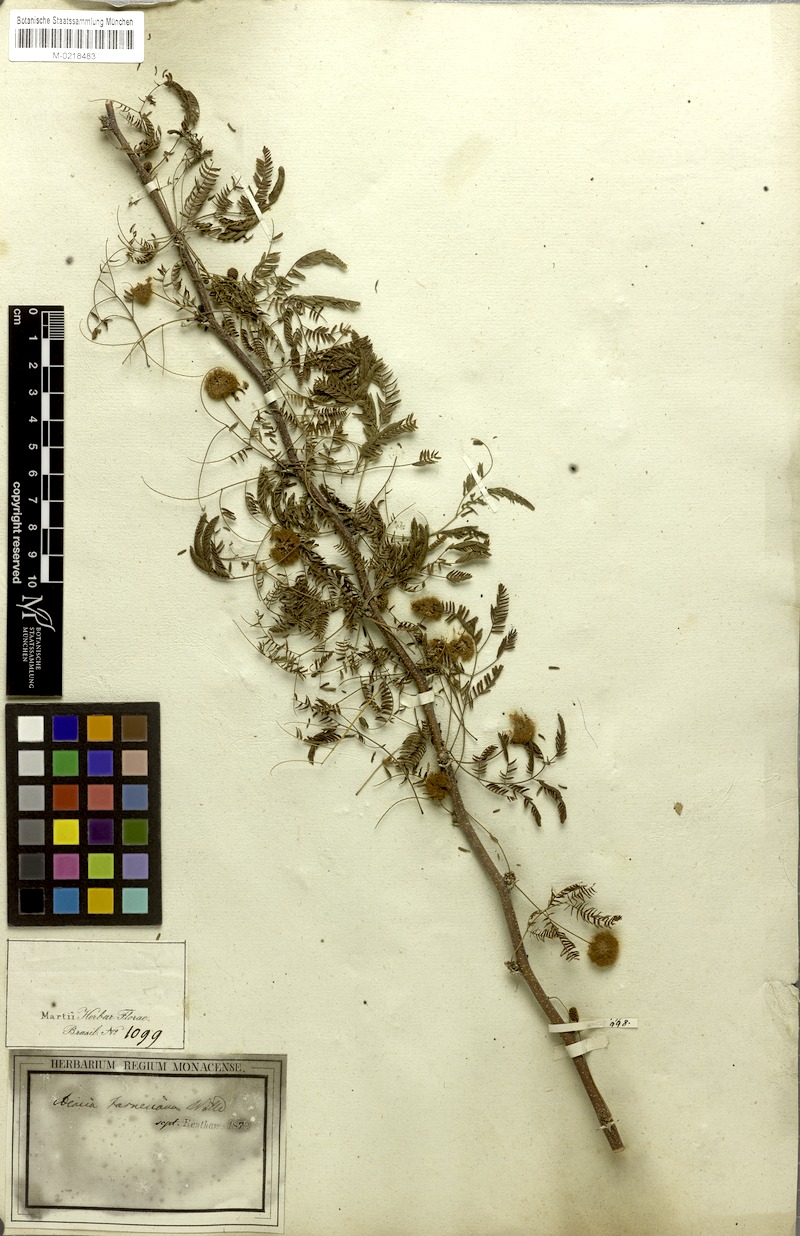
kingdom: Plantae
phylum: Tracheophyta
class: Magnoliopsida
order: Fabales
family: Fabaceae
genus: Vachellia
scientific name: Vachellia farnesiana
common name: Sweet acacia
